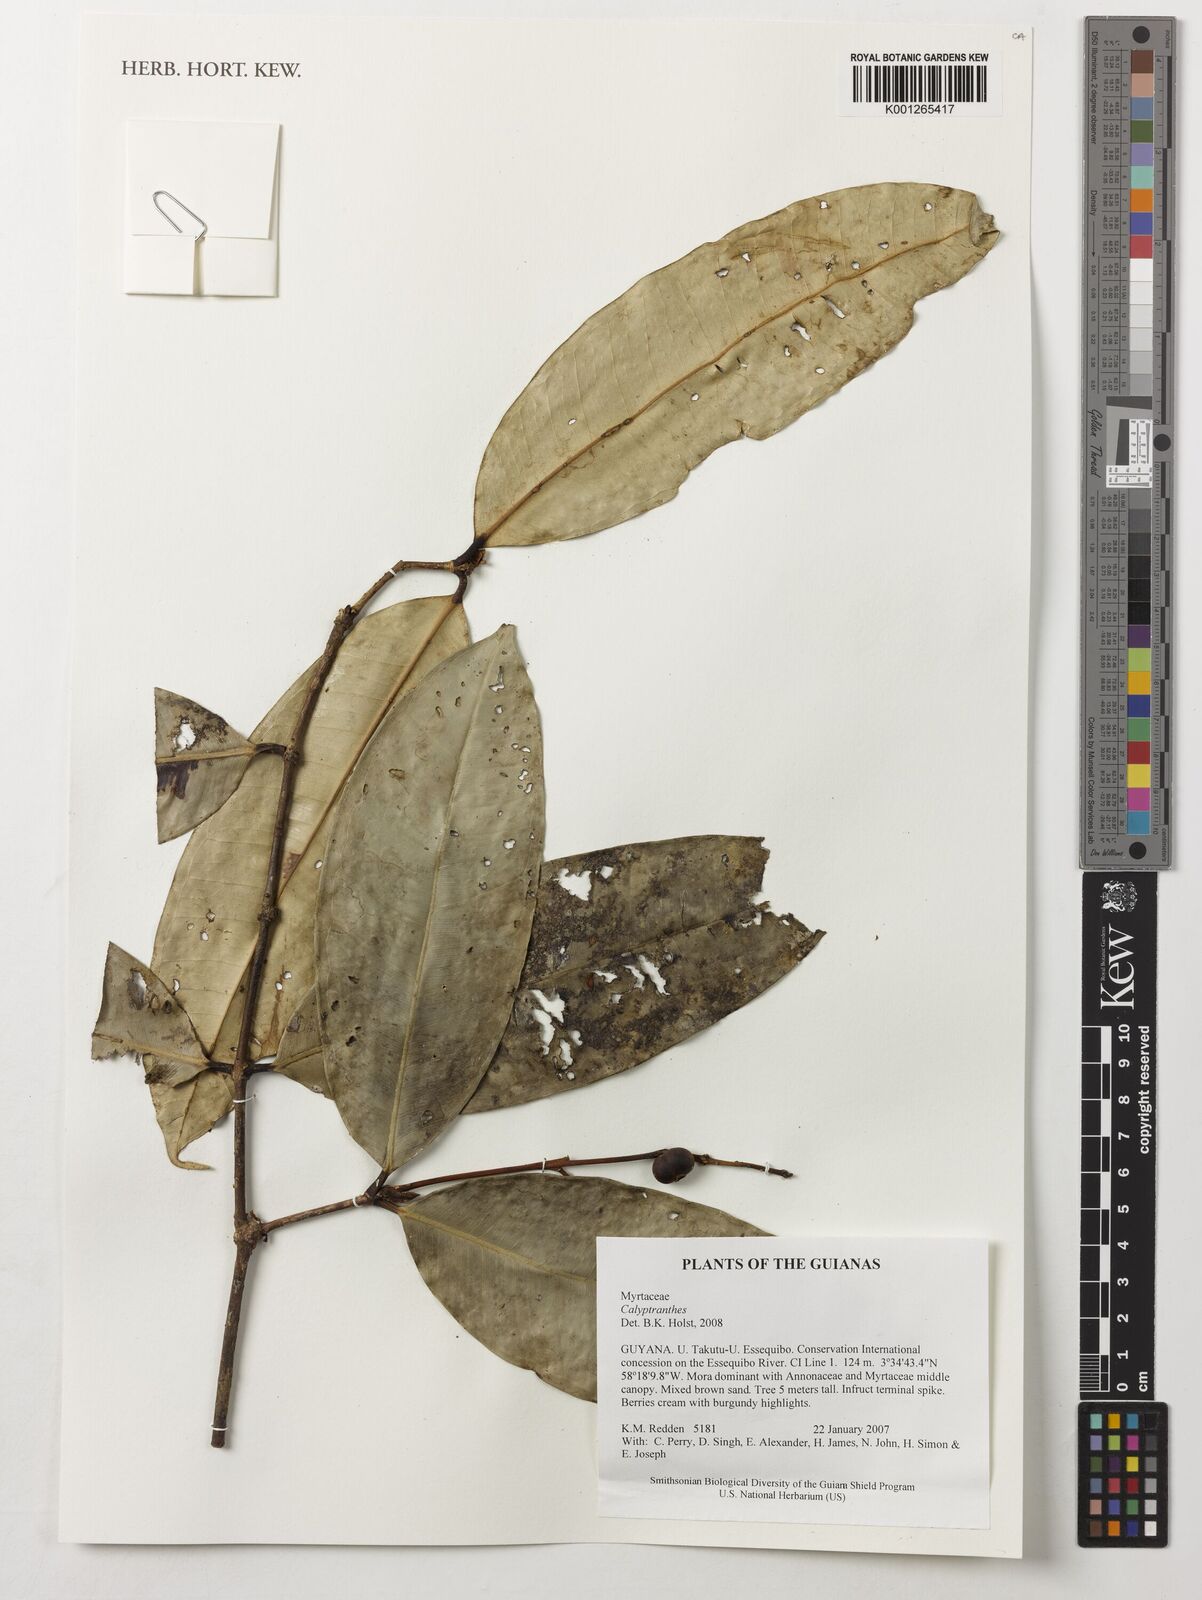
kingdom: Plantae
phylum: Tracheophyta
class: Magnoliopsida
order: Myrtales
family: Myrtaceae
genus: Calyptranthes
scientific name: Calyptranthes
